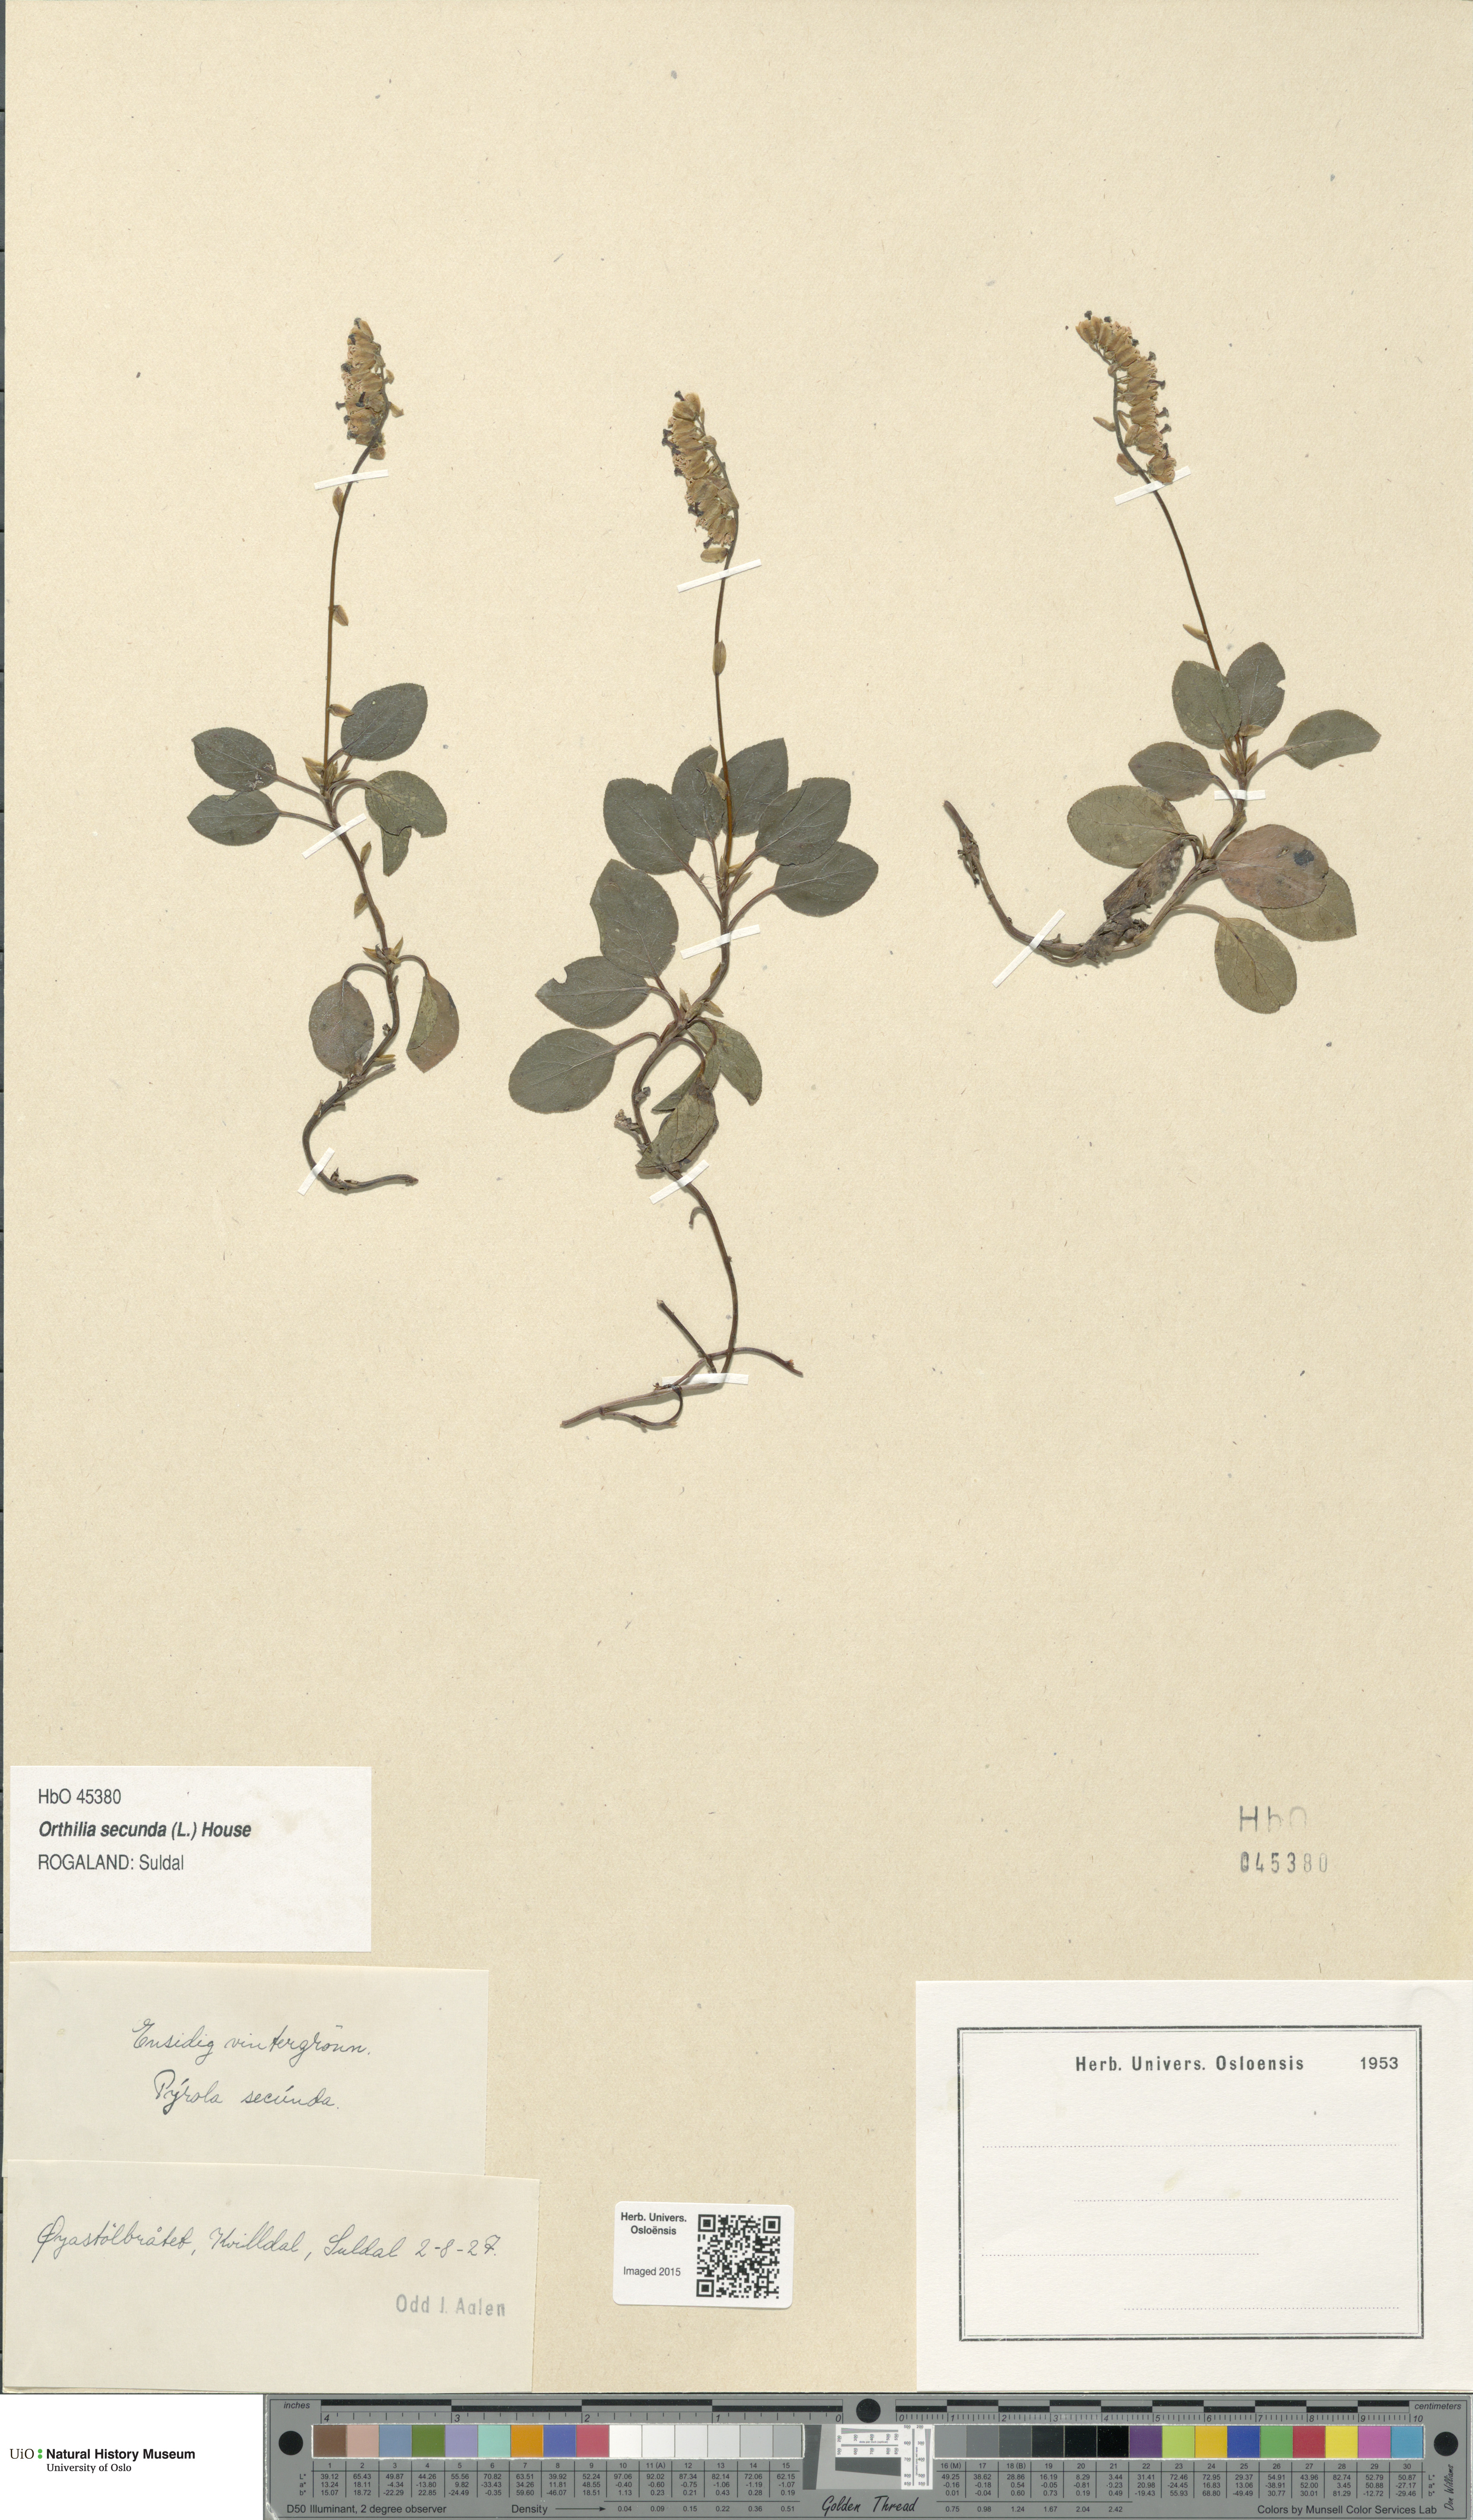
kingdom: Plantae
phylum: Tracheophyta
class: Magnoliopsida
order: Ericales
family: Ericaceae
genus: Orthilia
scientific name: Orthilia secunda
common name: One-sided orthilia
